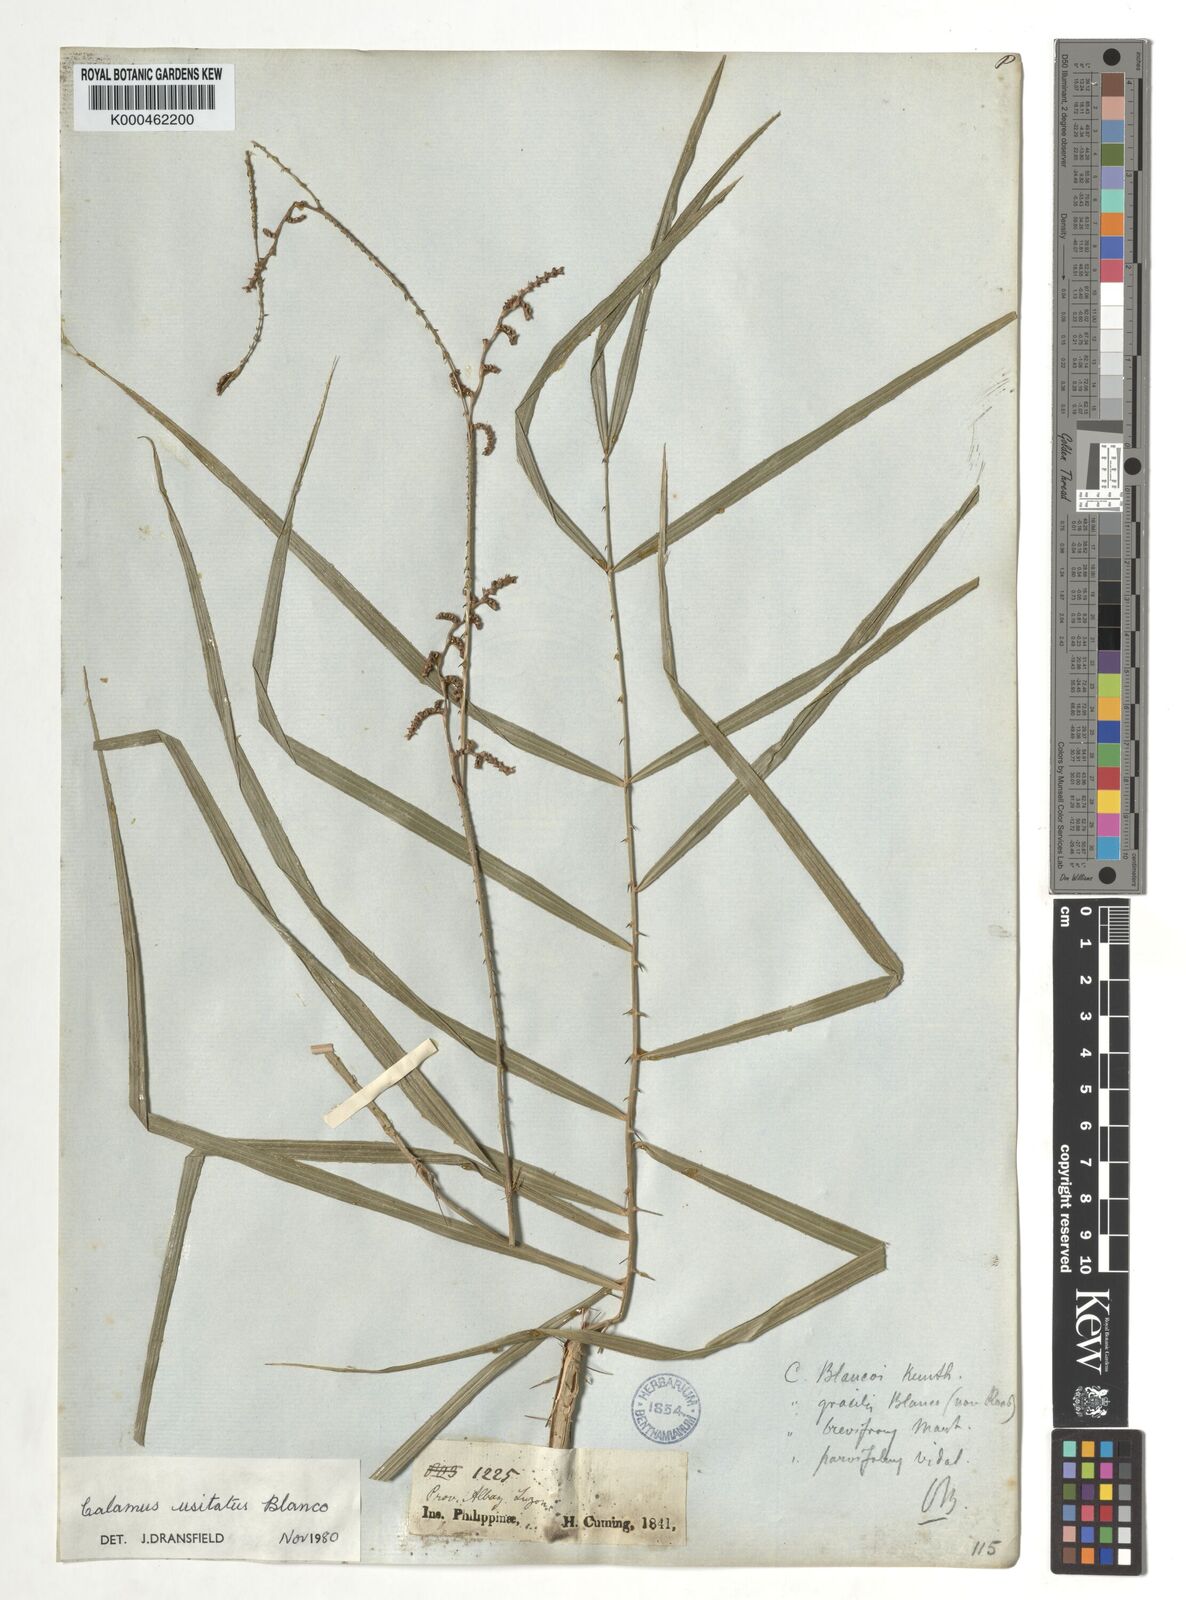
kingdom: Plantae
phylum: Tracheophyta
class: Liliopsida
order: Arecales
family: Arecaceae
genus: Calamus
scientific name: Calamus usitatus
